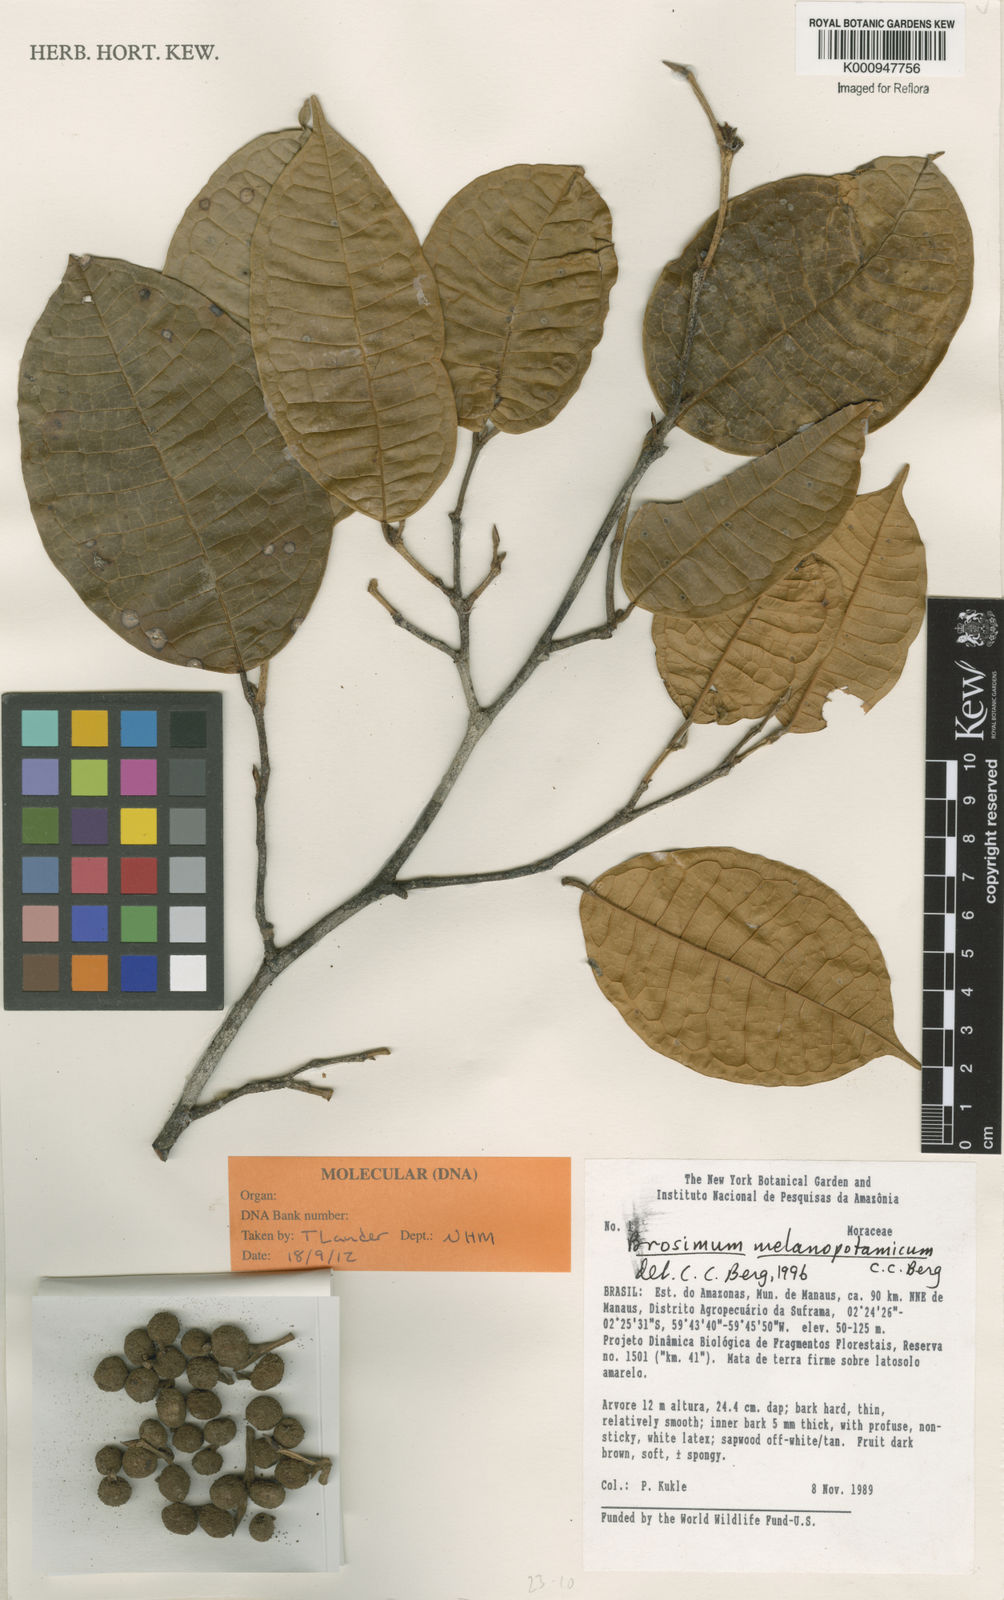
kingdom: Plantae
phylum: Tracheophyta
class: Magnoliopsida
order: Rosales
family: Moraceae
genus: Brosimum
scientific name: Brosimum melanopotamicum
